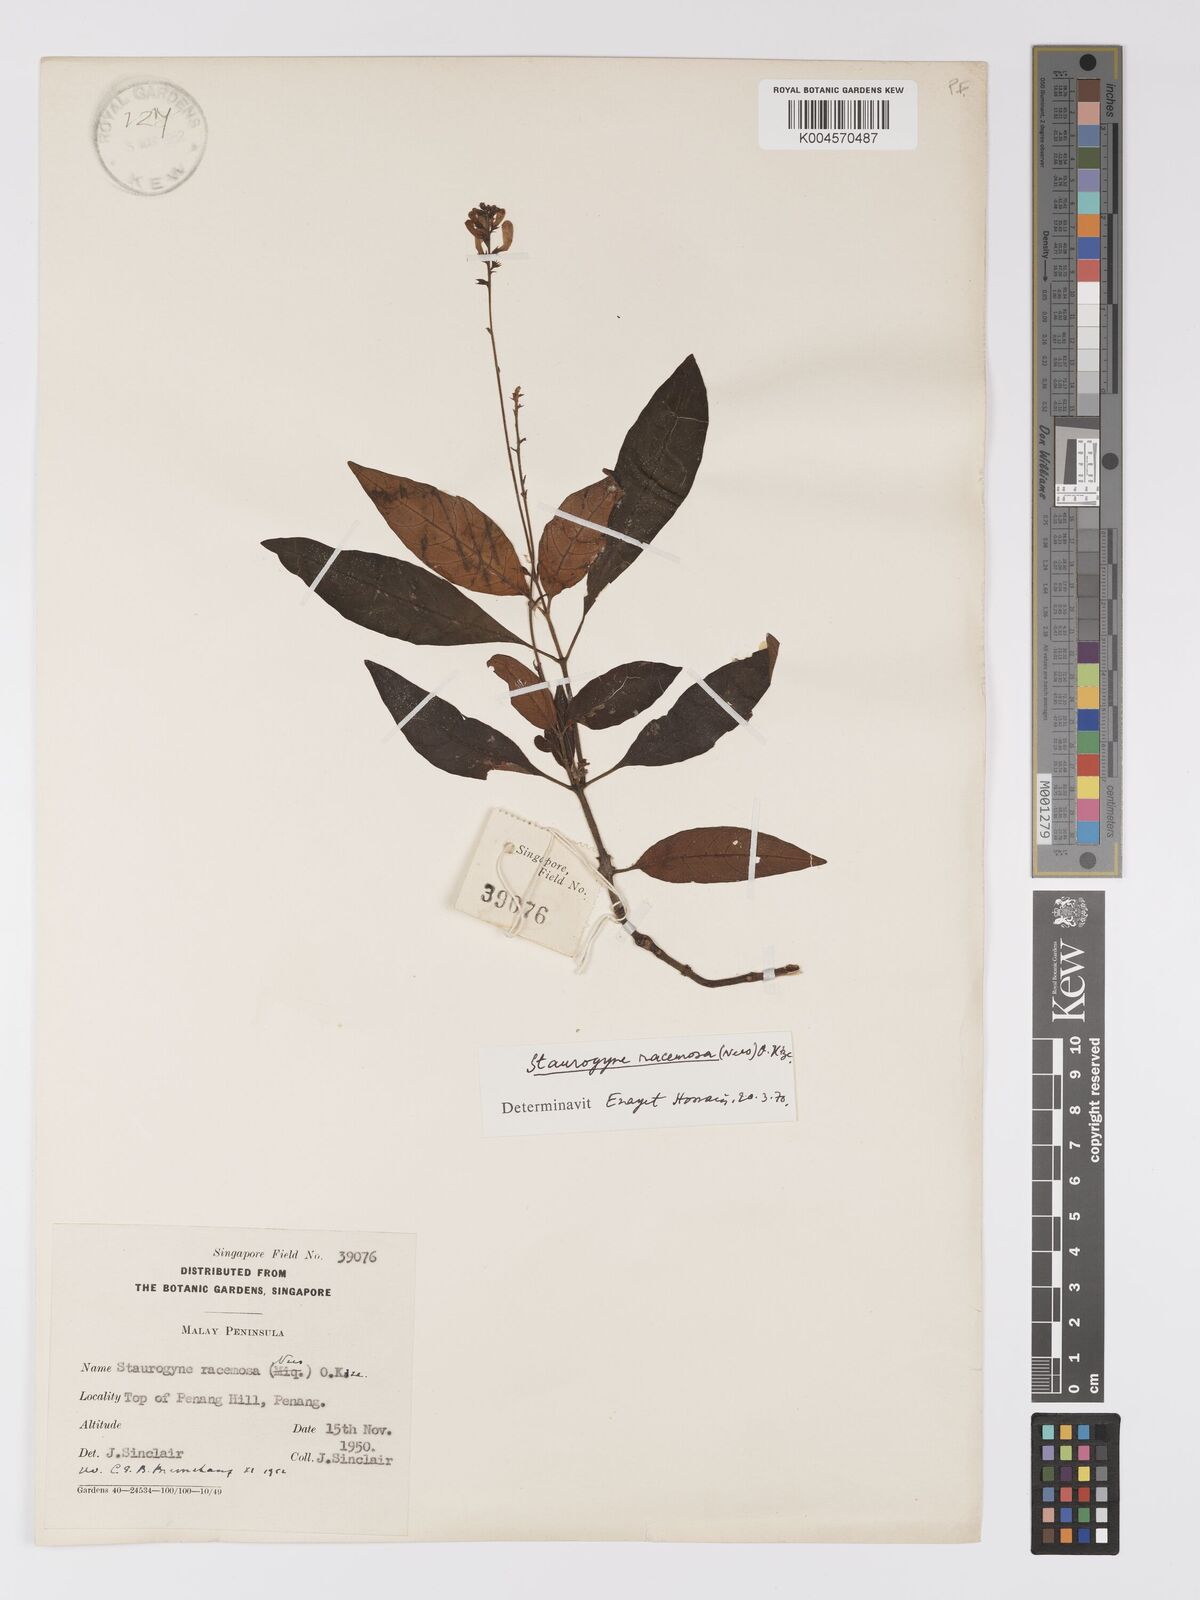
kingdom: Plantae
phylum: Tracheophyta
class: Magnoliopsida
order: Lamiales
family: Acanthaceae
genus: Staurogyne
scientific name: Staurogyne racemosa
